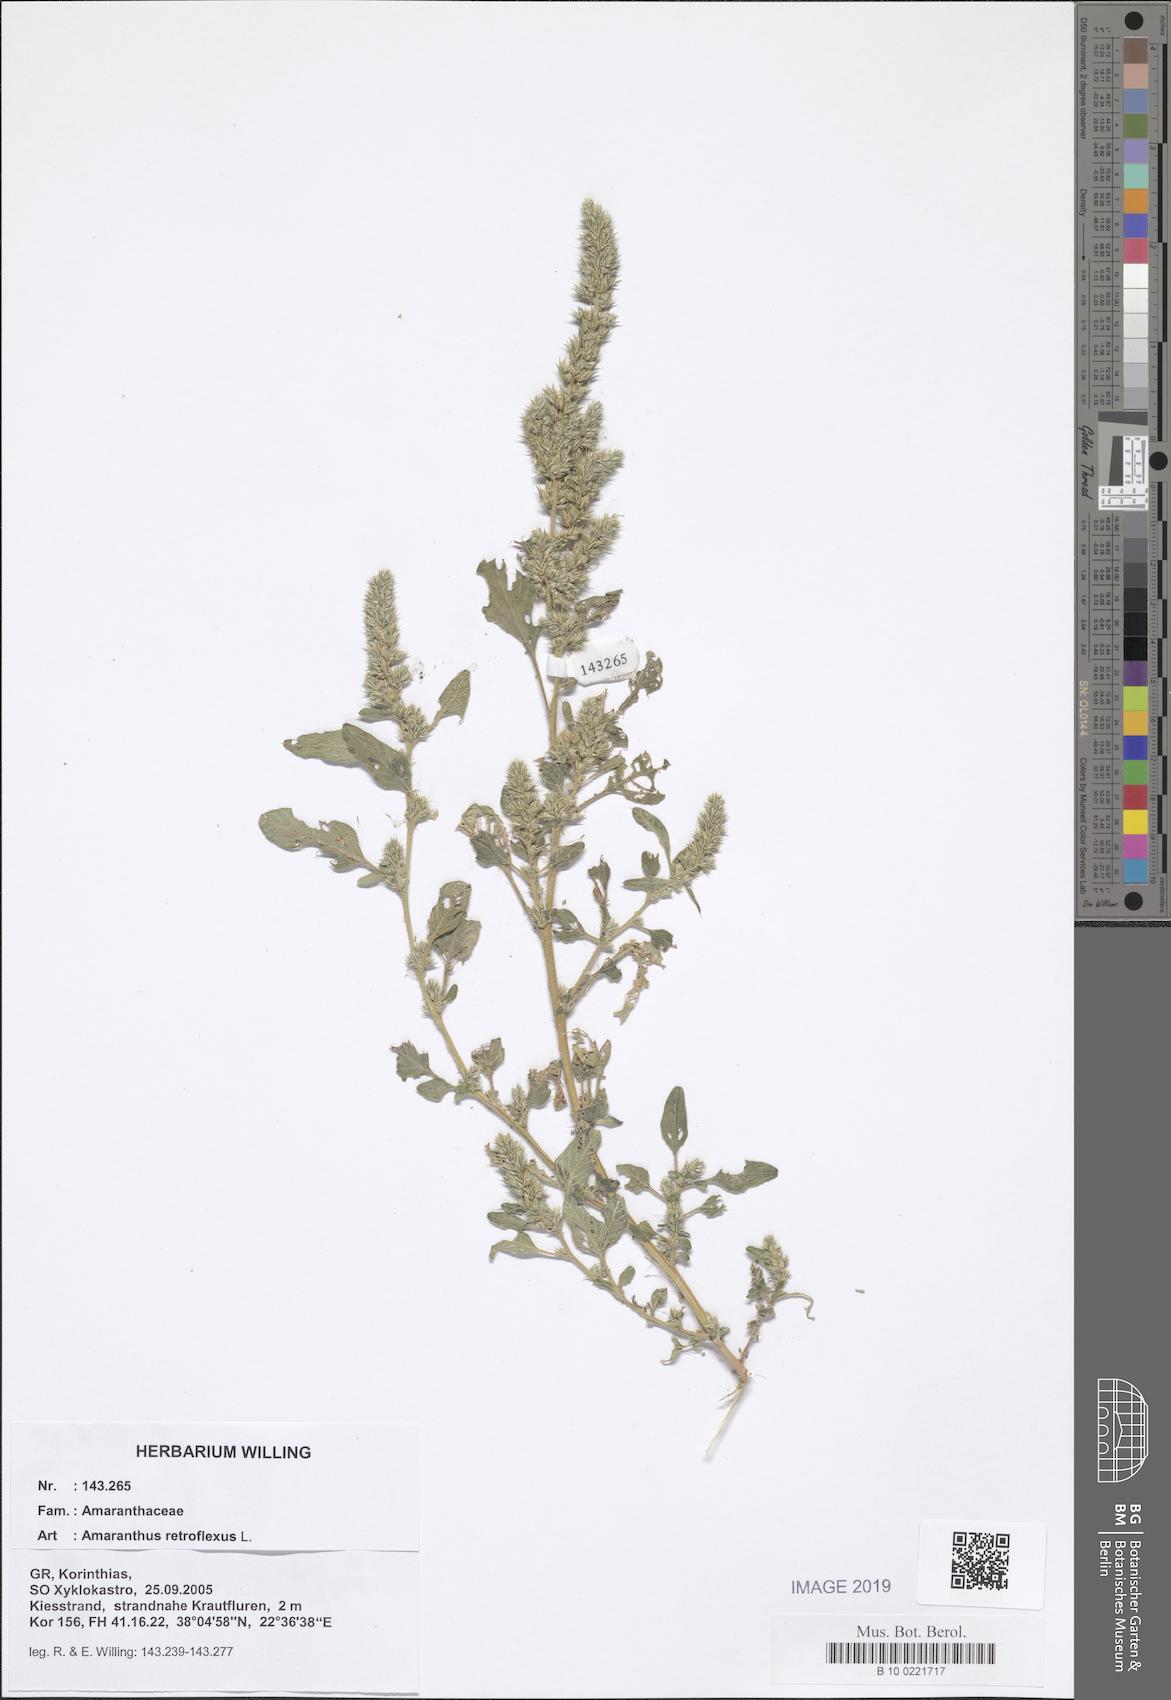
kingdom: Plantae
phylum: Tracheophyta
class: Magnoliopsida
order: Caryophyllales
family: Amaranthaceae
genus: Amaranthus
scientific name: Amaranthus retroflexus
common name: Redroot amaranth
